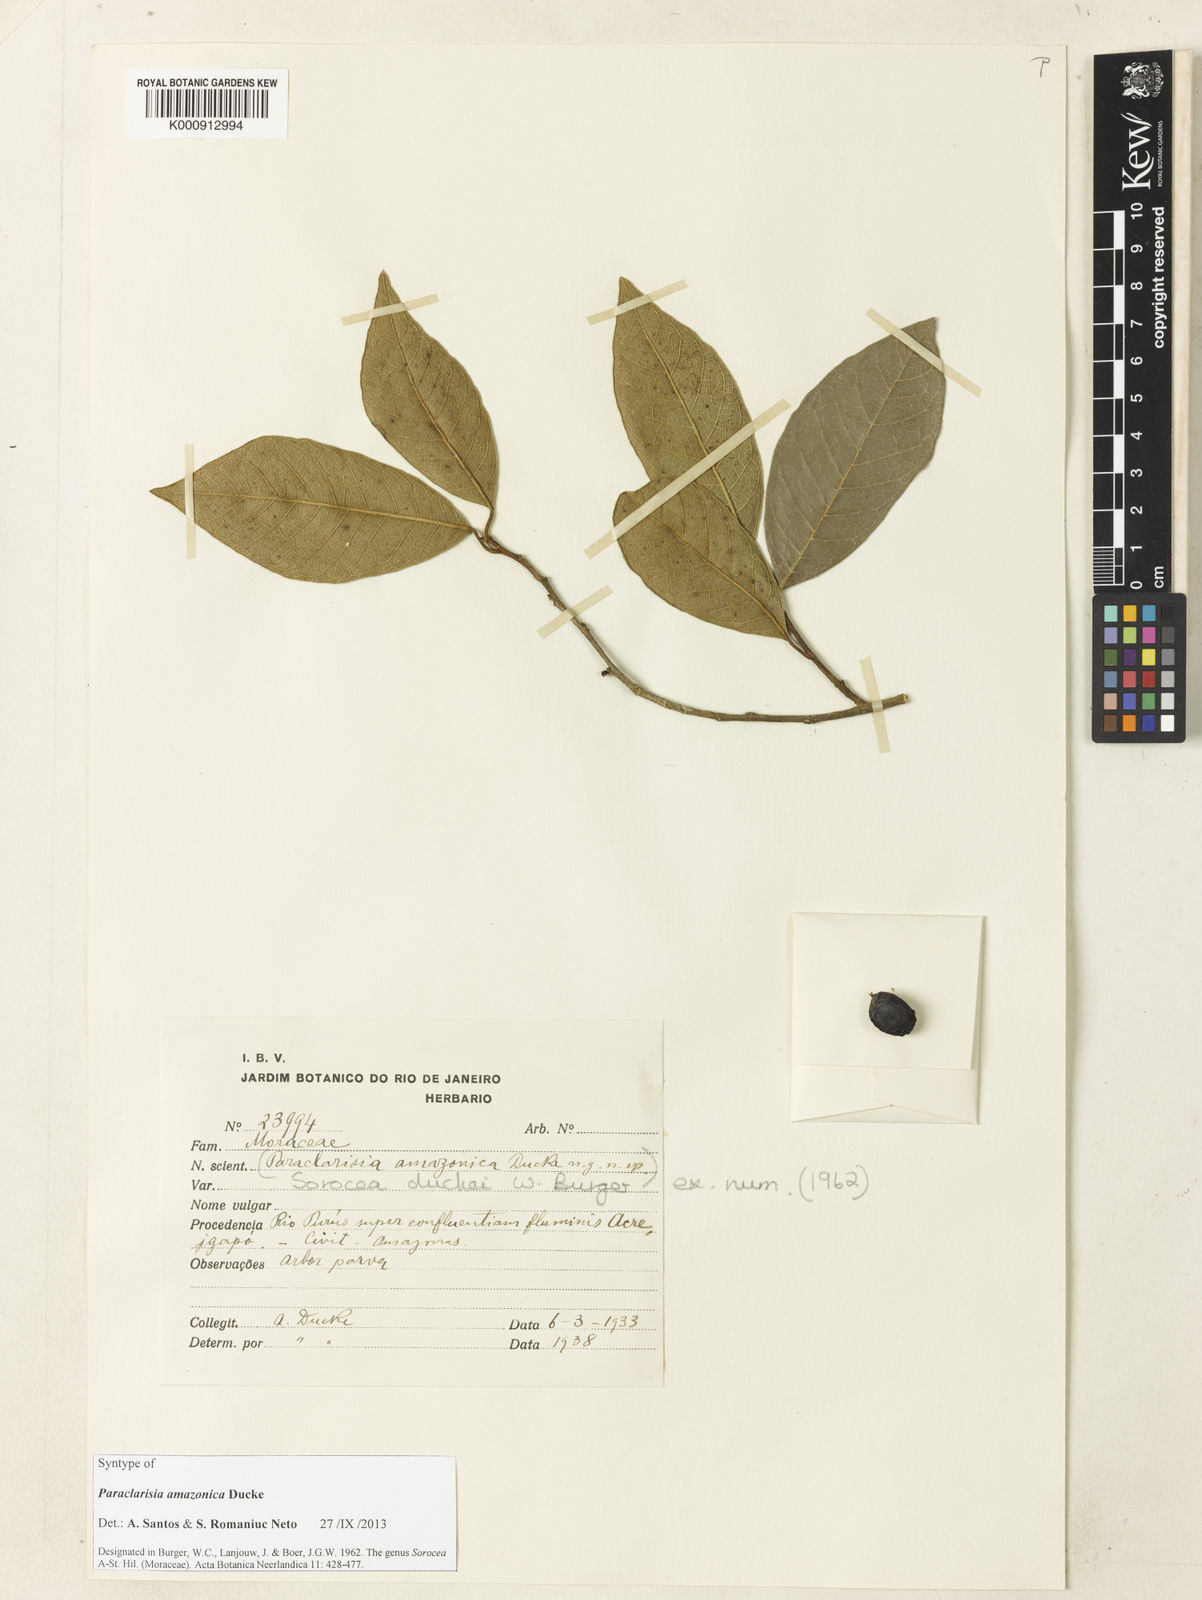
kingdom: Plantae
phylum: Tracheophyta
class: Magnoliopsida
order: Rosales
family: Moraceae
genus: Sorocea
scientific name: Sorocea duckei
